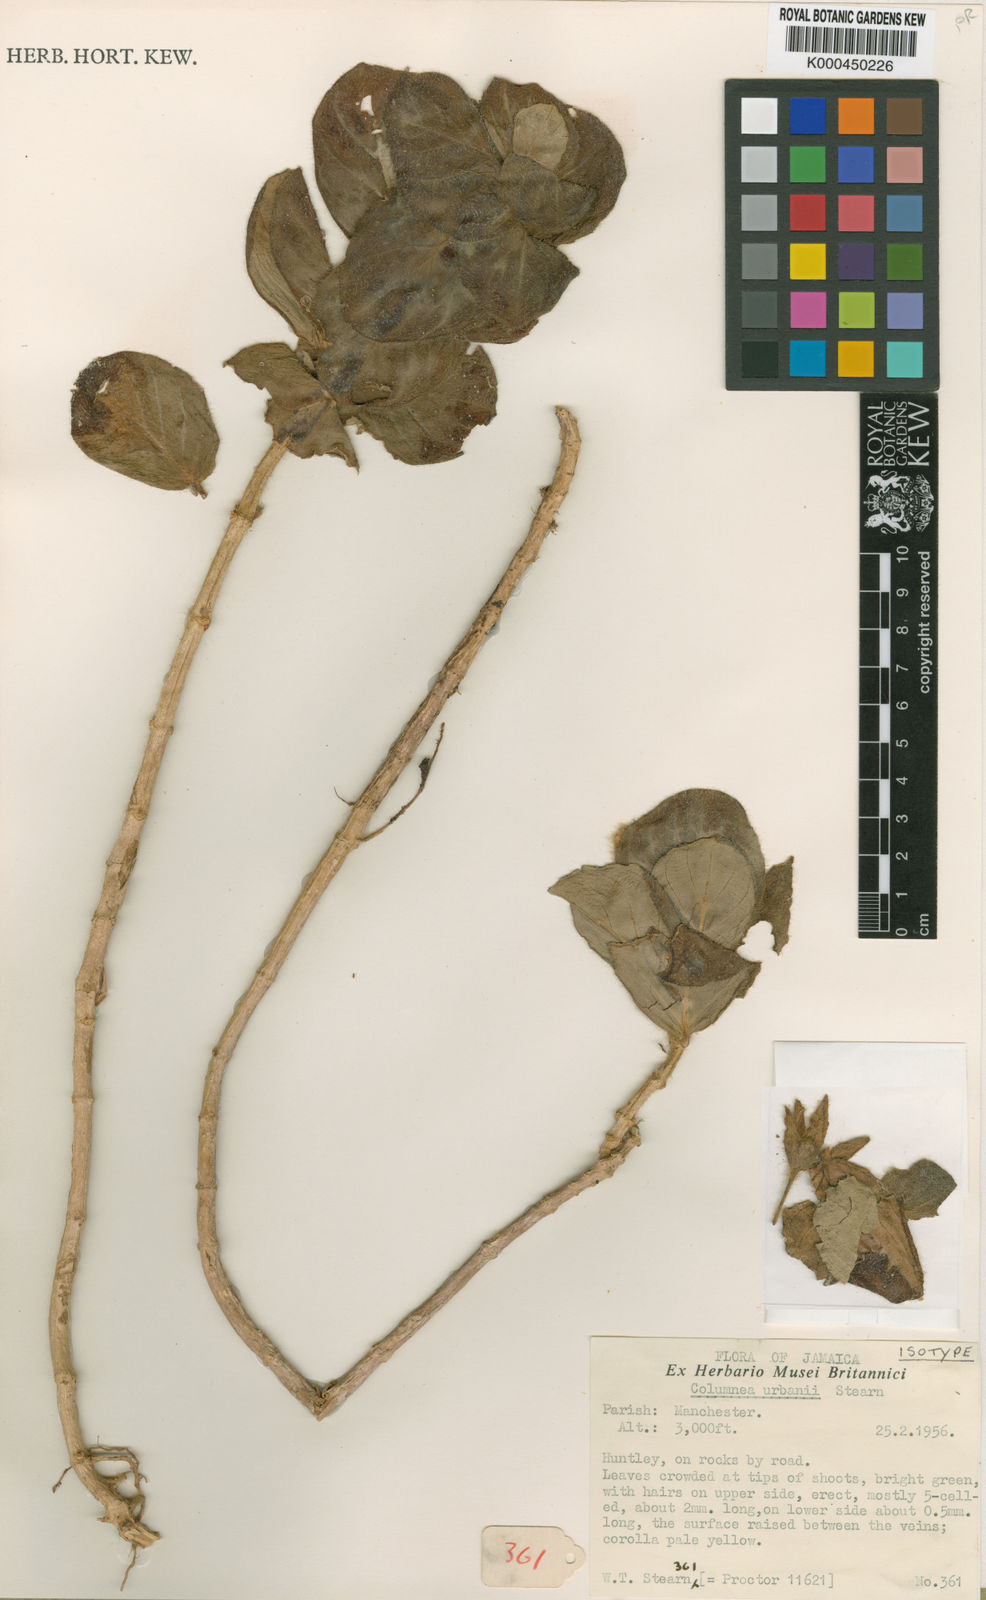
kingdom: Plantae
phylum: Tracheophyta
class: Magnoliopsida
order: Lamiales
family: Gesneriaceae
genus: Columnea
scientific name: Columnea urbanii
